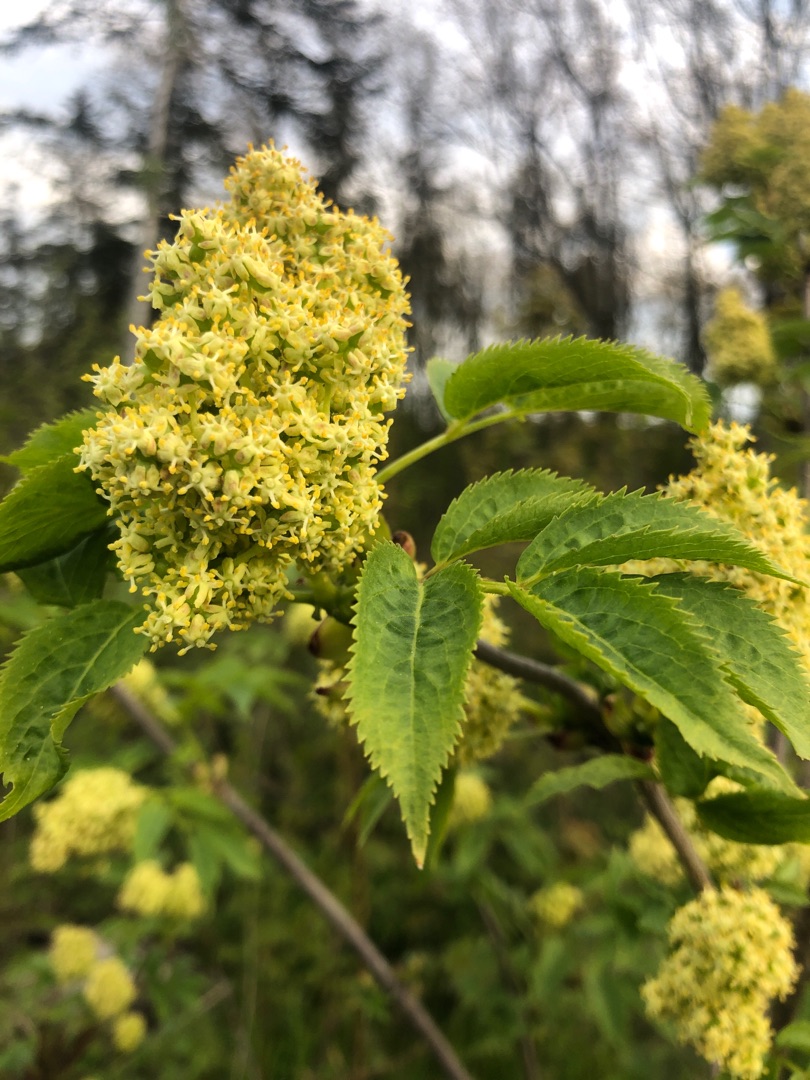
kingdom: Plantae
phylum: Tracheophyta
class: Magnoliopsida
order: Dipsacales
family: Viburnaceae
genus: Sambucus
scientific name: Sambucus racemosa
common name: Drue-hyld
